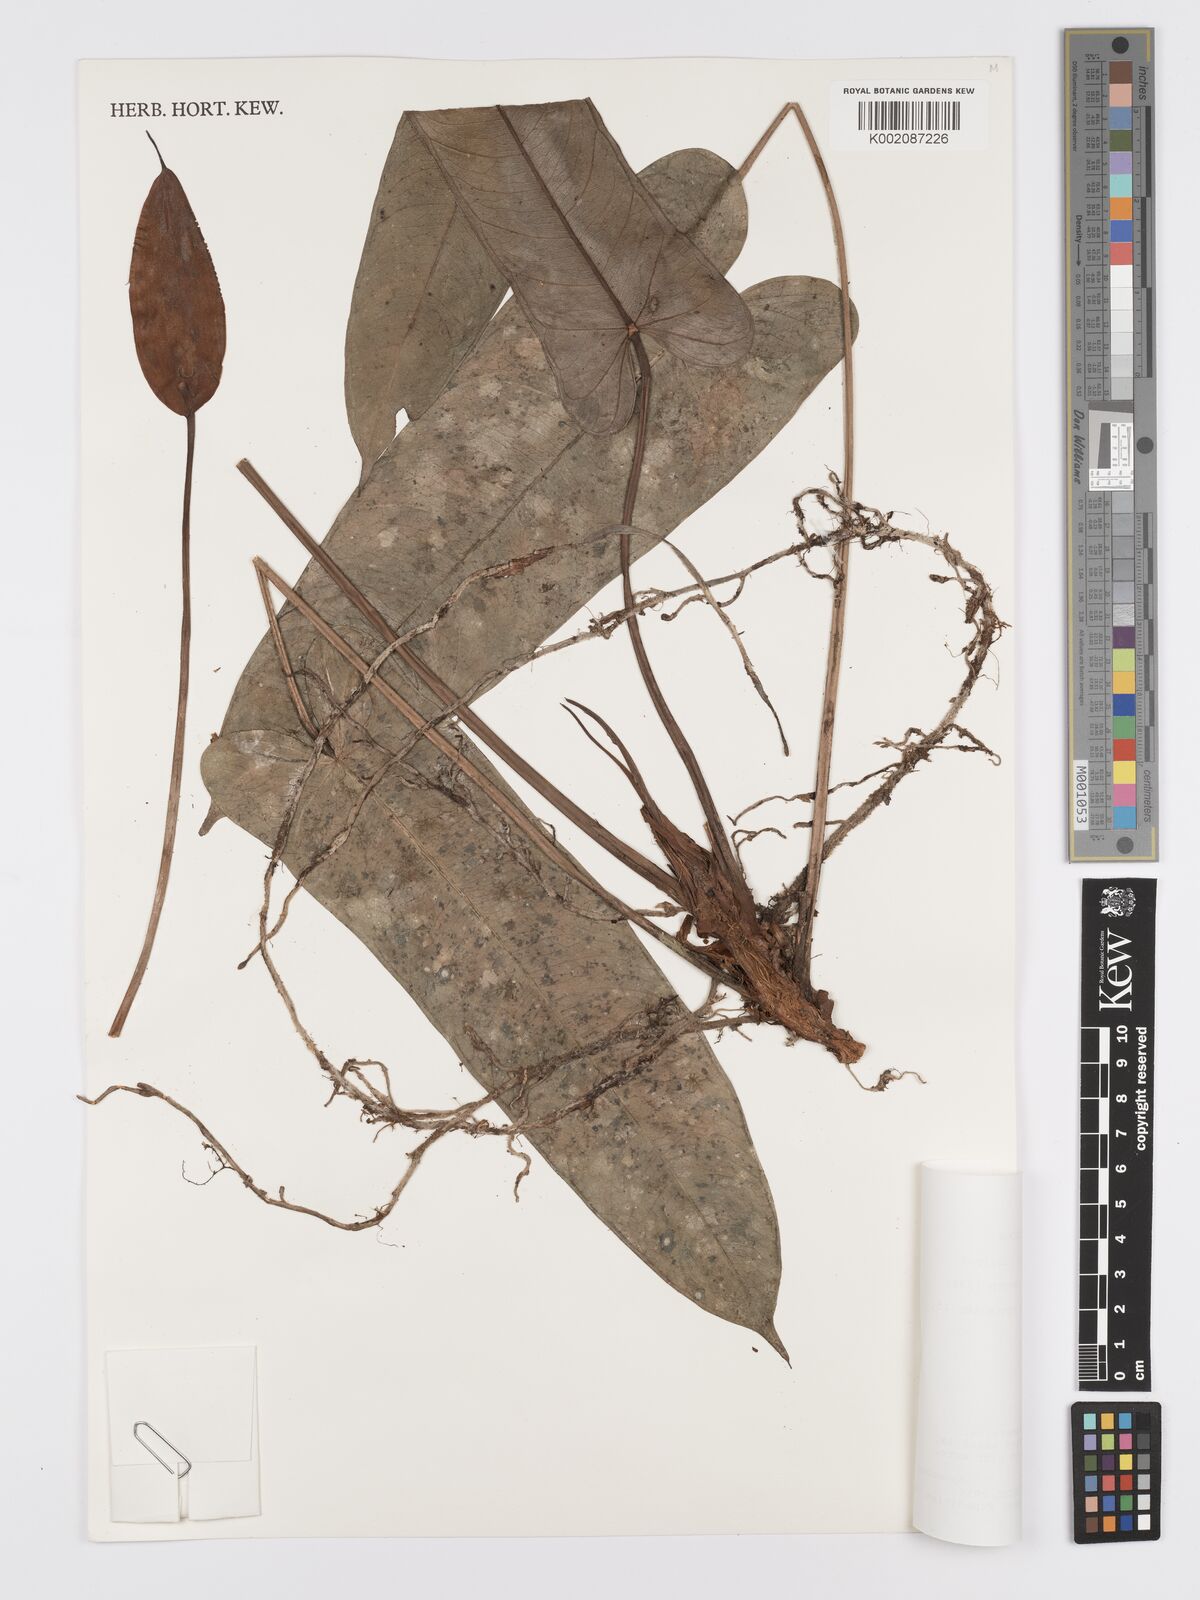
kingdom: Plantae
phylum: Tracheophyta
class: Liliopsida
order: Alismatales
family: Araceae
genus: Anthurium
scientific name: Anthurium variegatum
